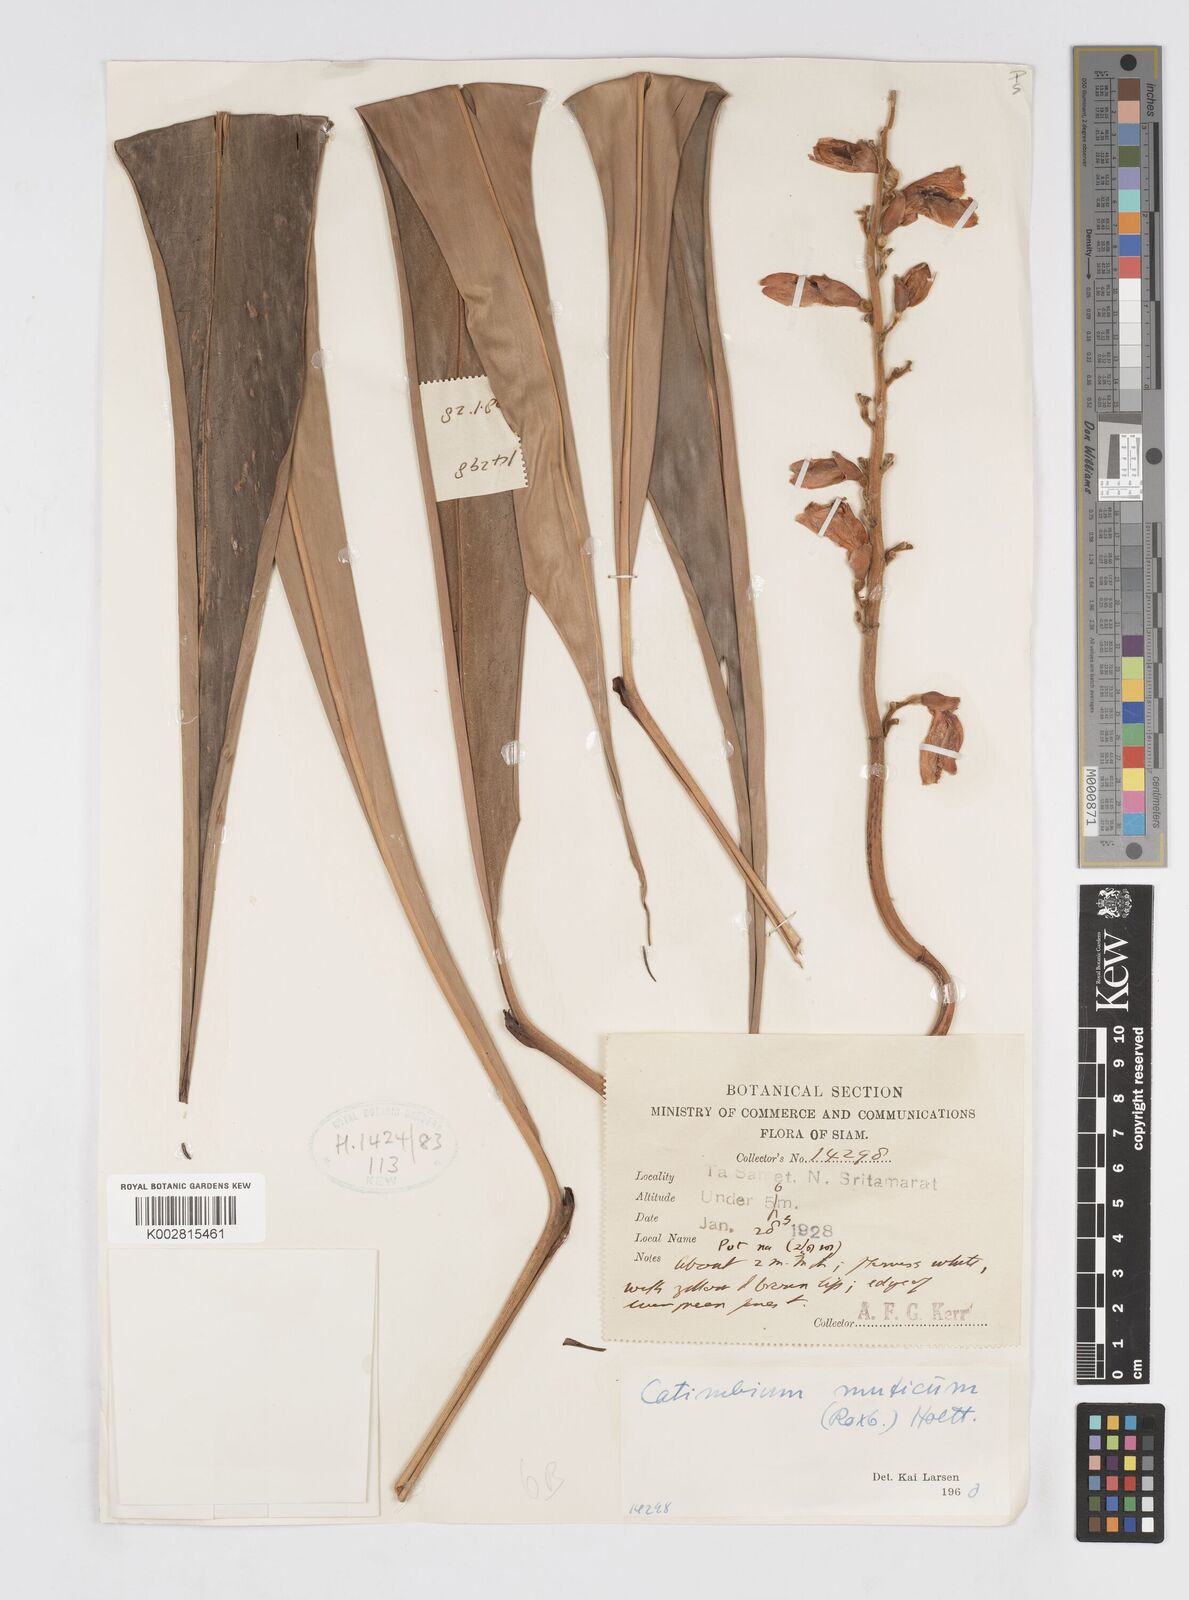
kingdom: Plantae
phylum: Tracheophyta
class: Liliopsida
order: Zingiberales
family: Zingiberaceae
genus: Alpinia
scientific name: Alpinia mutica
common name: Small shell ginger
